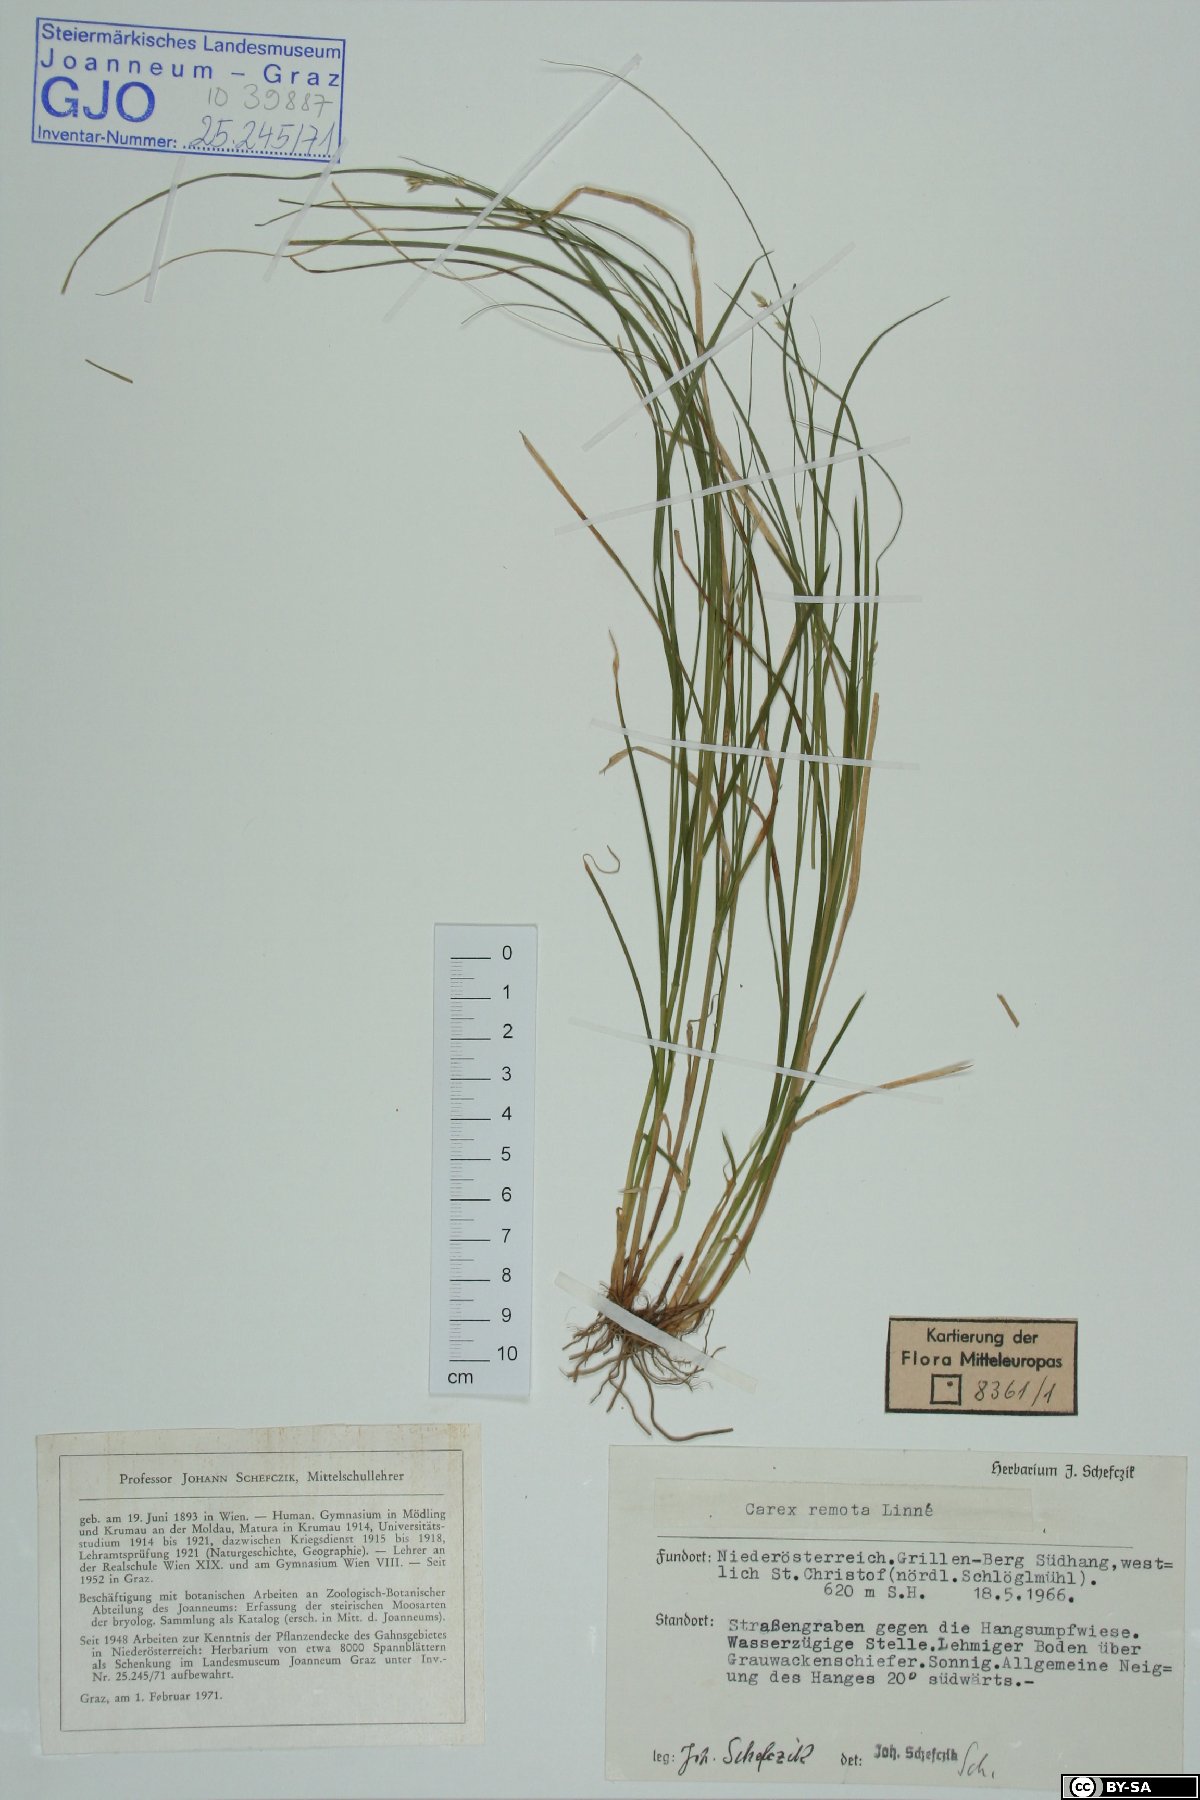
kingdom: Plantae
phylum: Tracheophyta
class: Liliopsida
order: Poales
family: Cyperaceae
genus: Carex
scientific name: Carex remota
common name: Remote sedge
